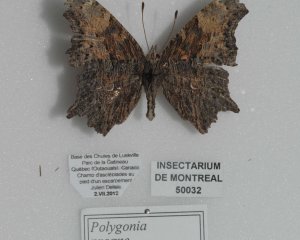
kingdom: Animalia
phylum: Arthropoda
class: Insecta
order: Lepidoptera
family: Nymphalidae
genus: Polygonia
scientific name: Polygonia progne
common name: Gray Comma
